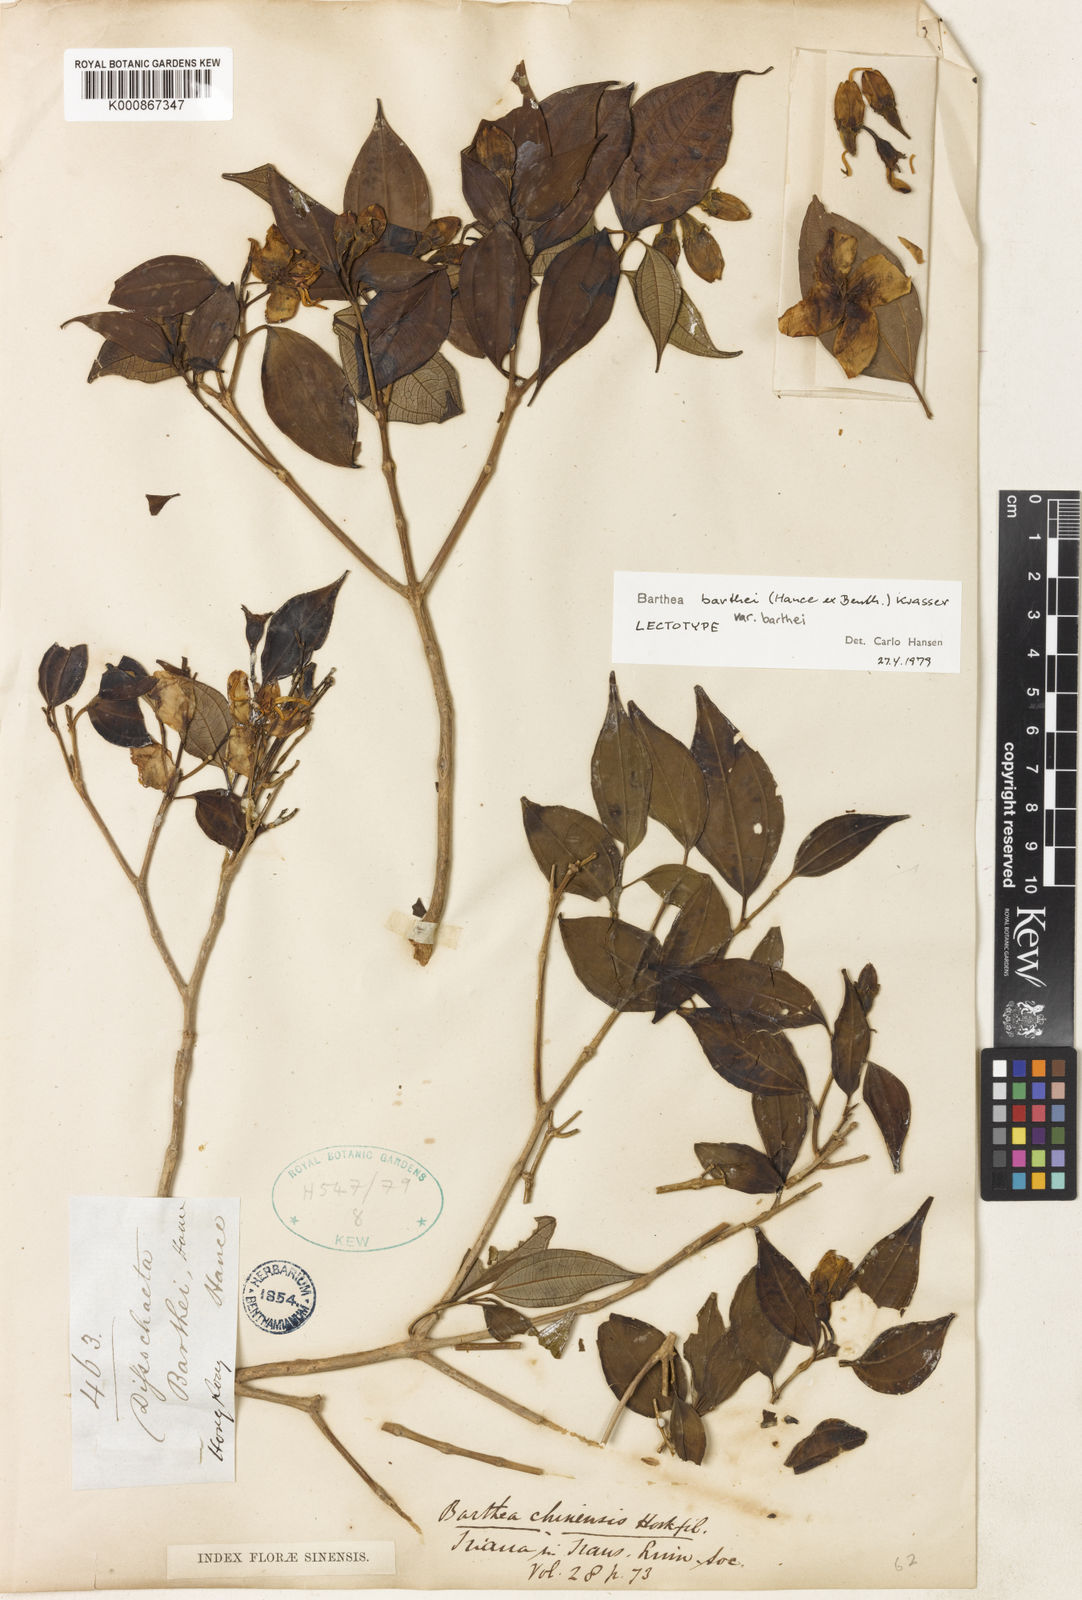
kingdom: Plantae
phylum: Tracheophyta
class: Magnoliopsida
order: Myrtales
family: Melastomataceae
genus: Barthea
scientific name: Barthea barthei
